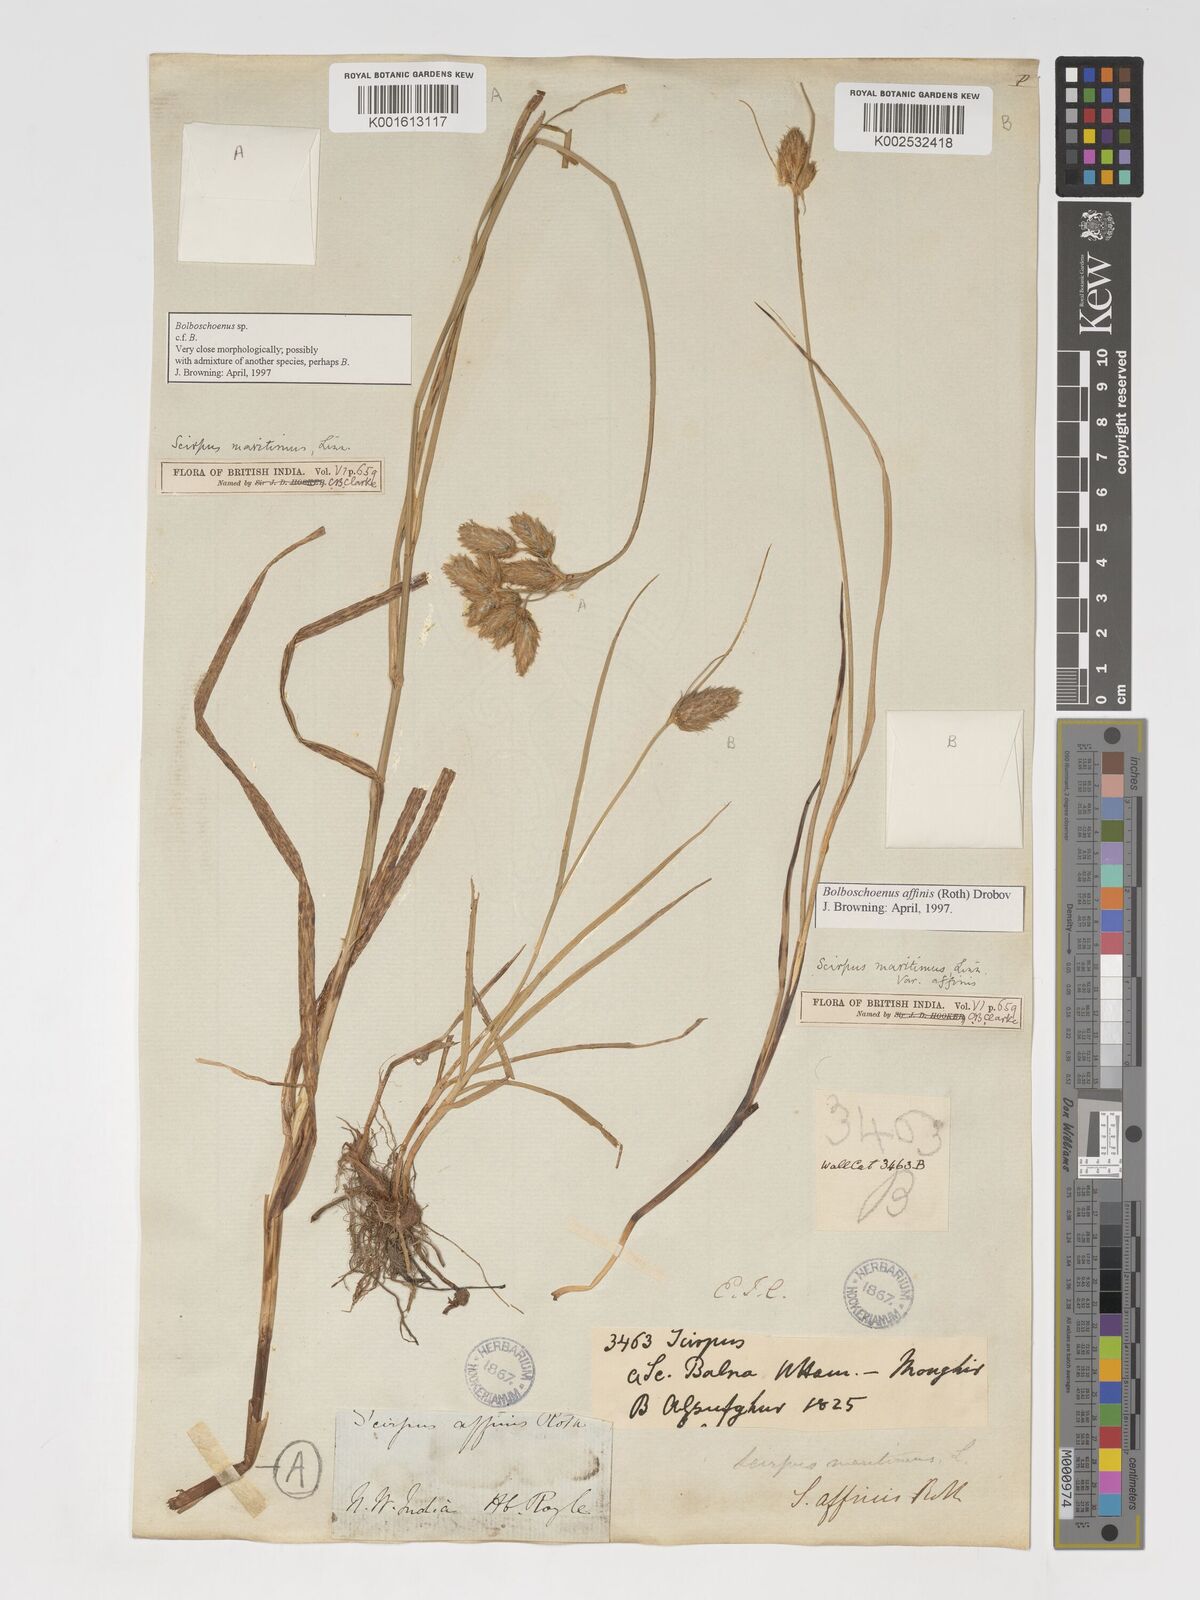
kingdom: Plantae
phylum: Tracheophyta
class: Liliopsida
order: Poales
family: Cyperaceae
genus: Bolboschoenus
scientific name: Bolboschoenus maritimus
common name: Sea club-rush
